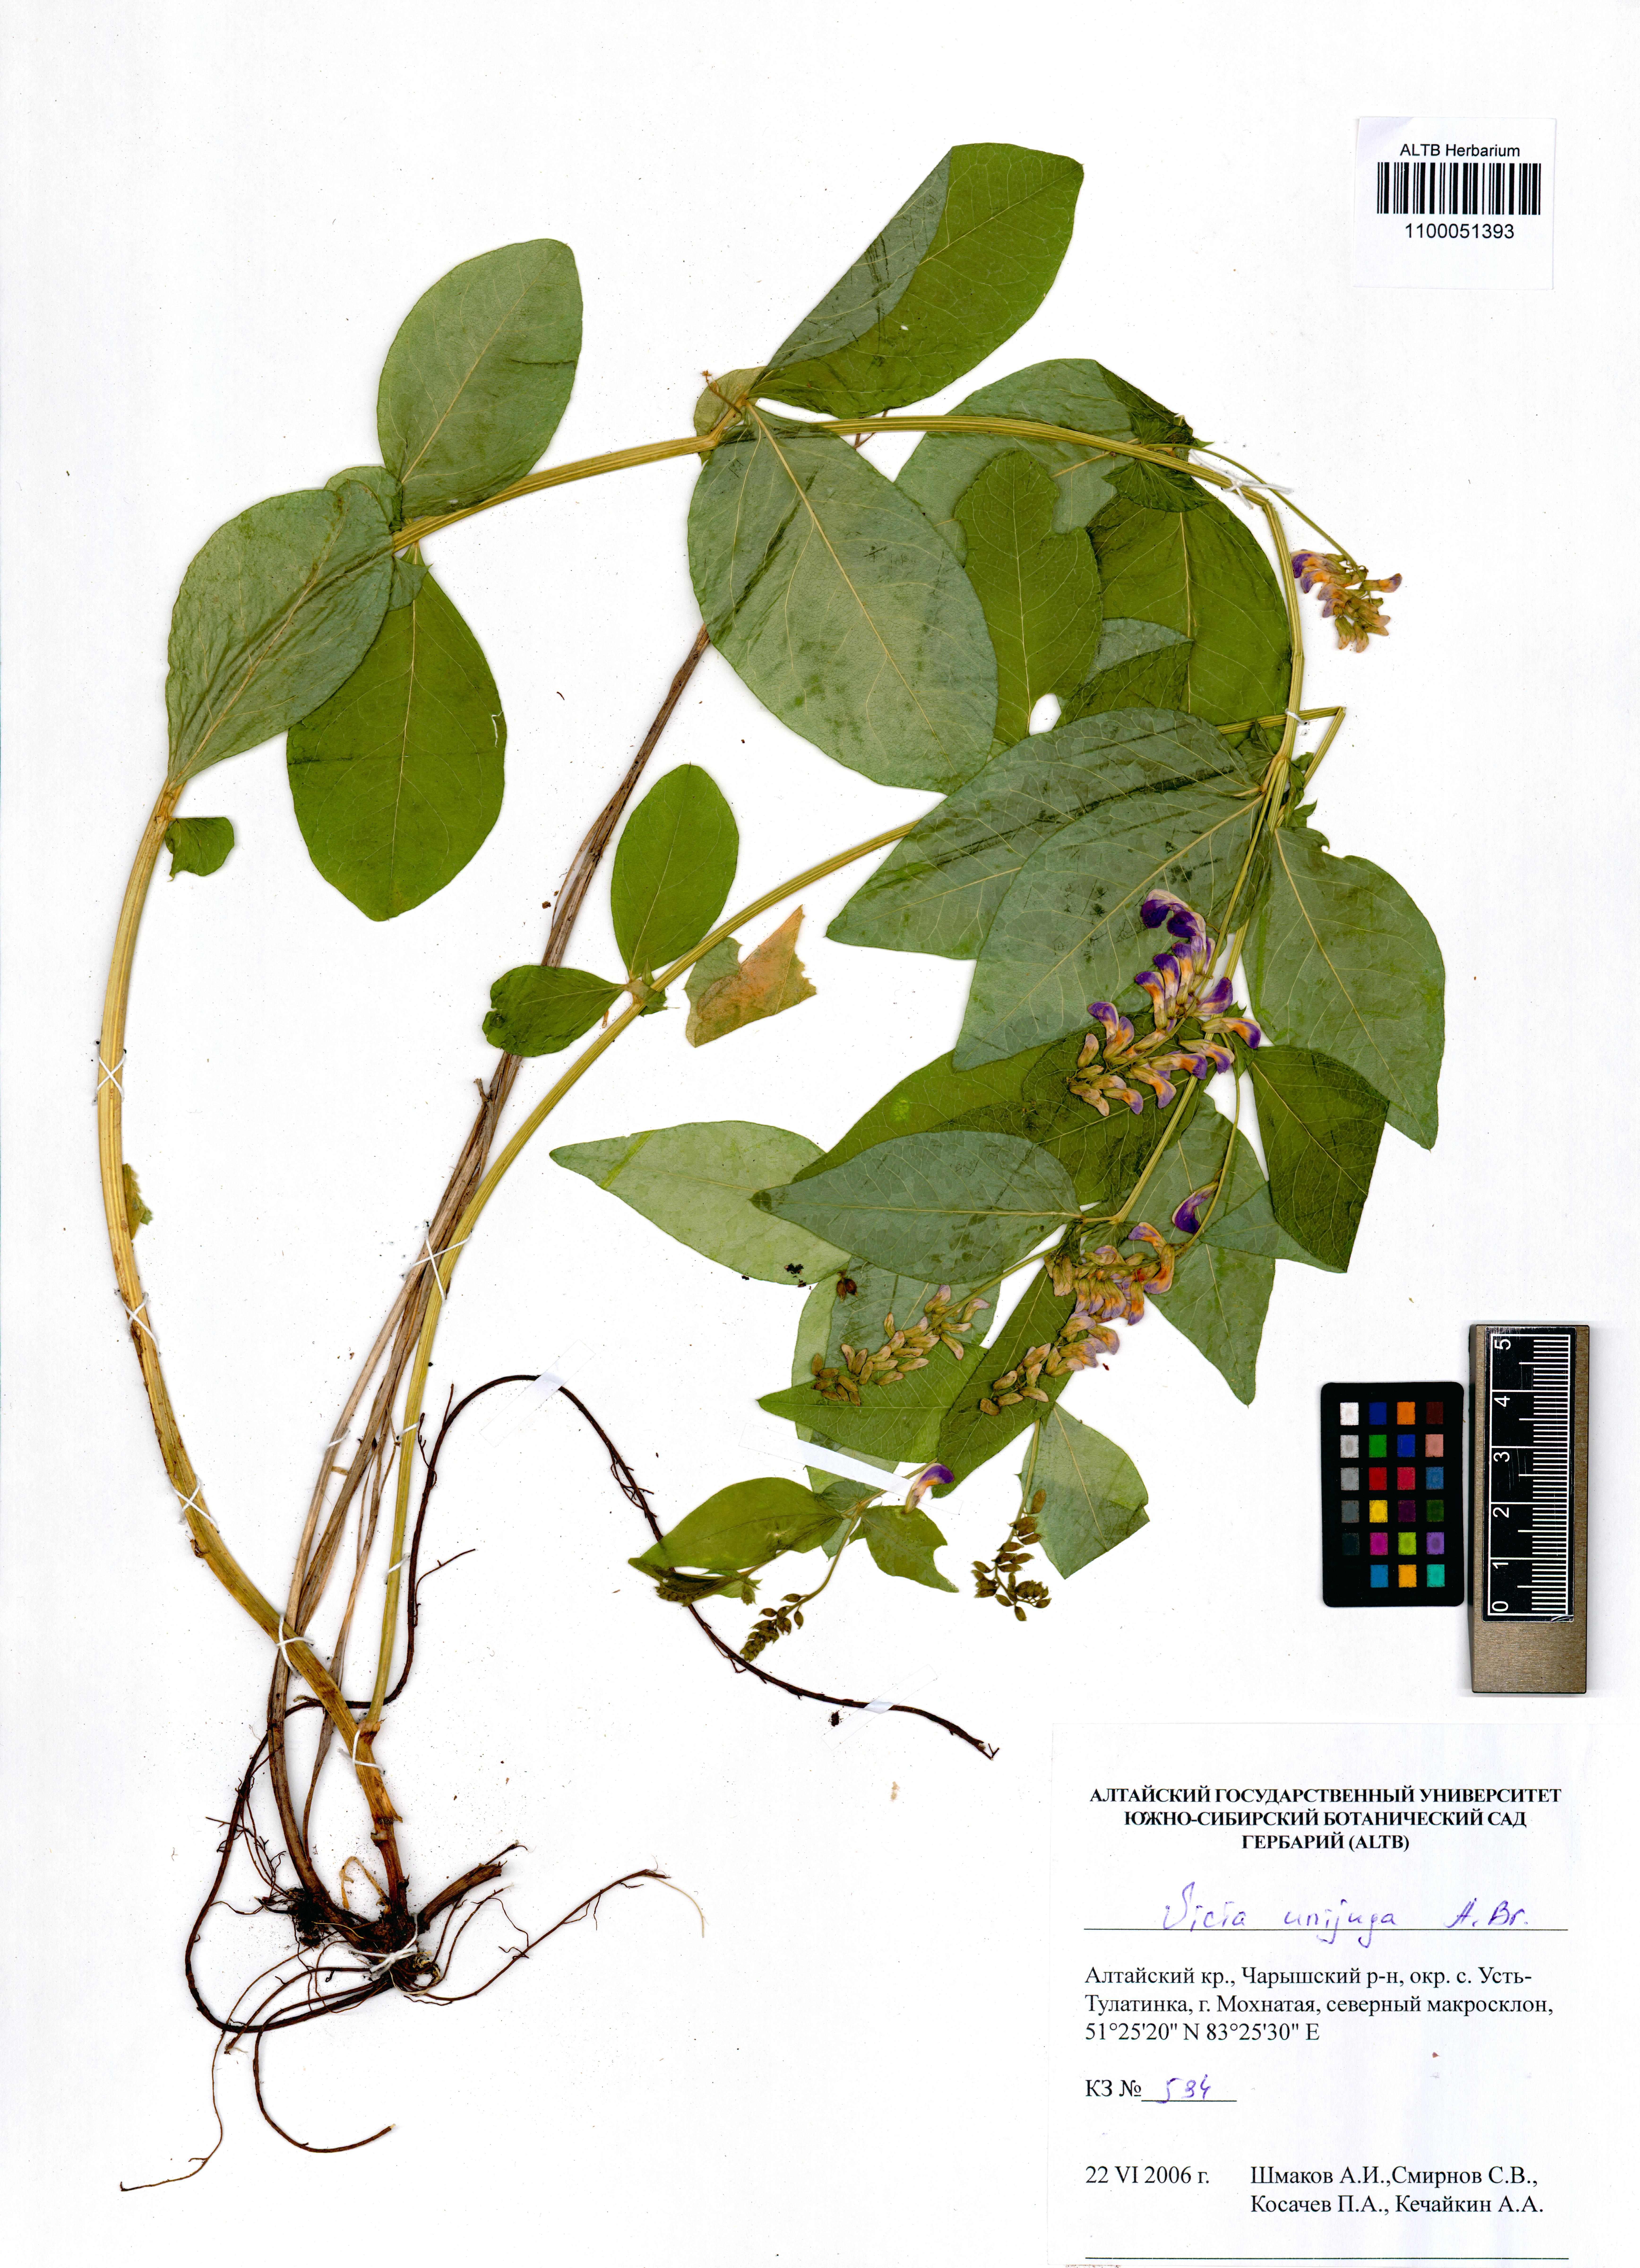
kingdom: Plantae
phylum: Tracheophyta
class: Magnoliopsida
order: Fabales
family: Fabaceae
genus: Vicia
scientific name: Vicia unijuga
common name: Two-leaf vetch
